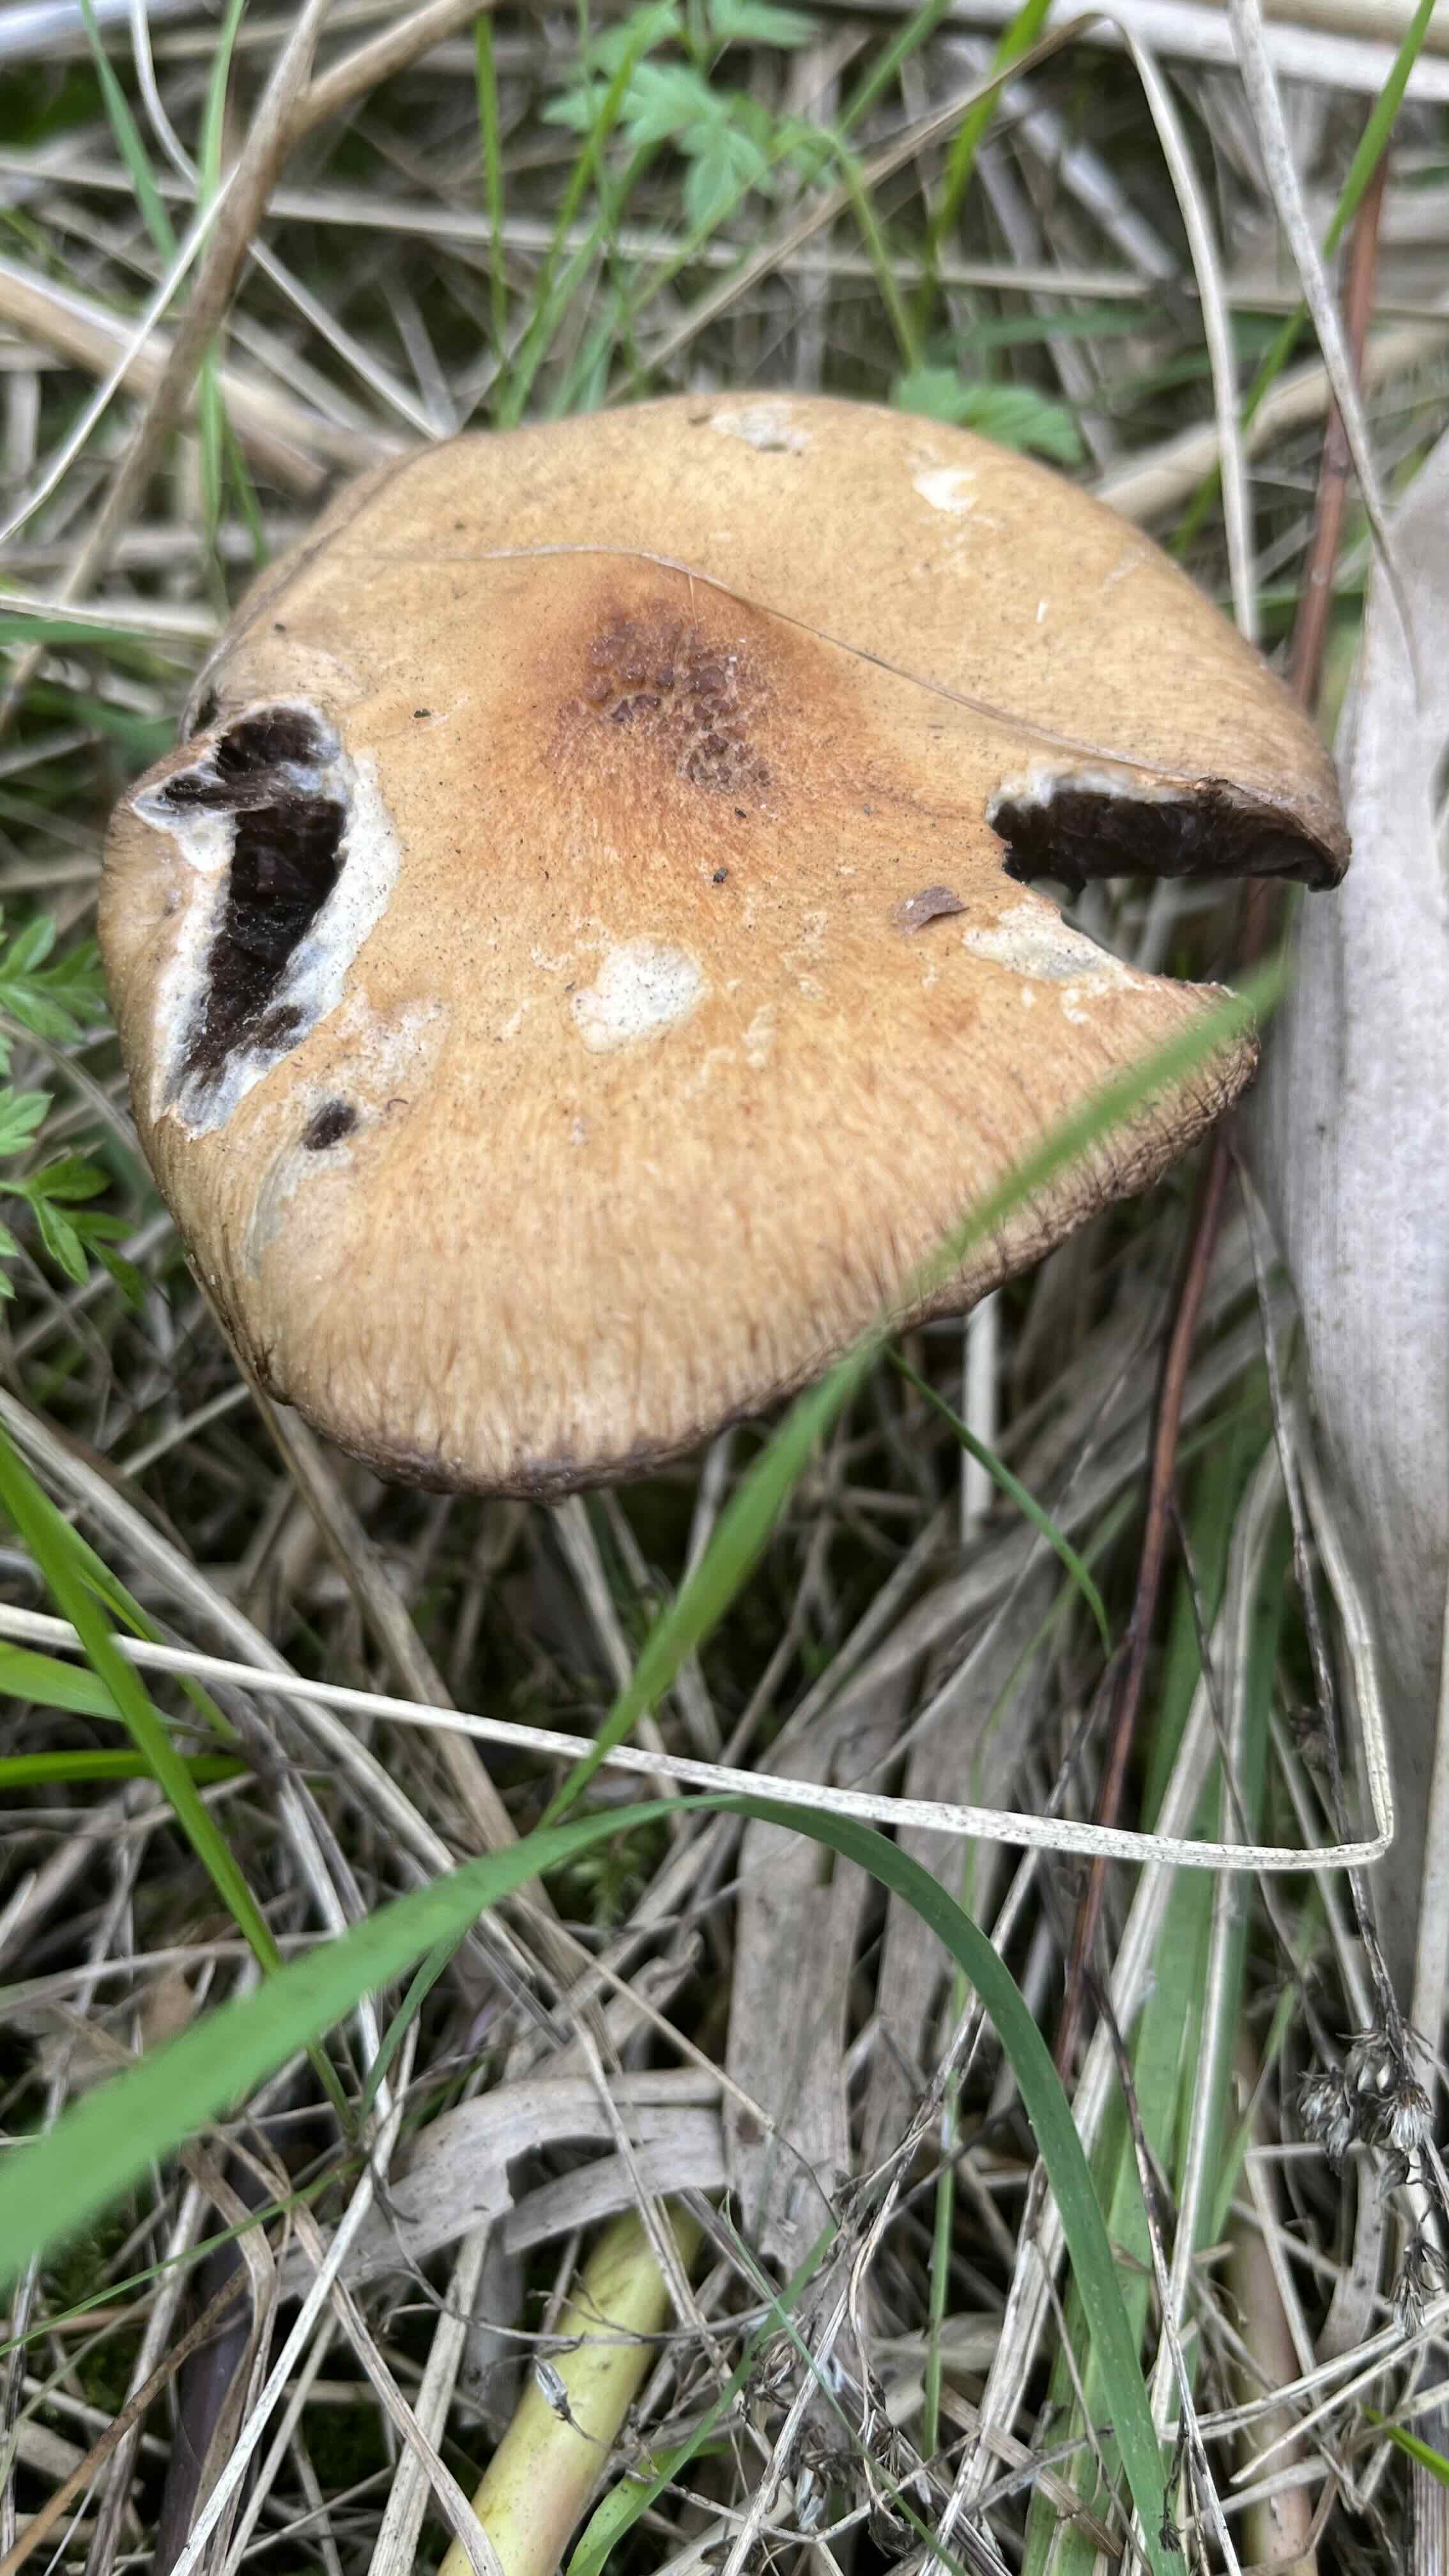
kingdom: Fungi
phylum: Basidiomycota
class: Agaricomycetes
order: Agaricales
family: Psathyrellaceae
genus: Lacrymaria
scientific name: Lacrymaria lacrymabunda
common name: grædende mørkhat
